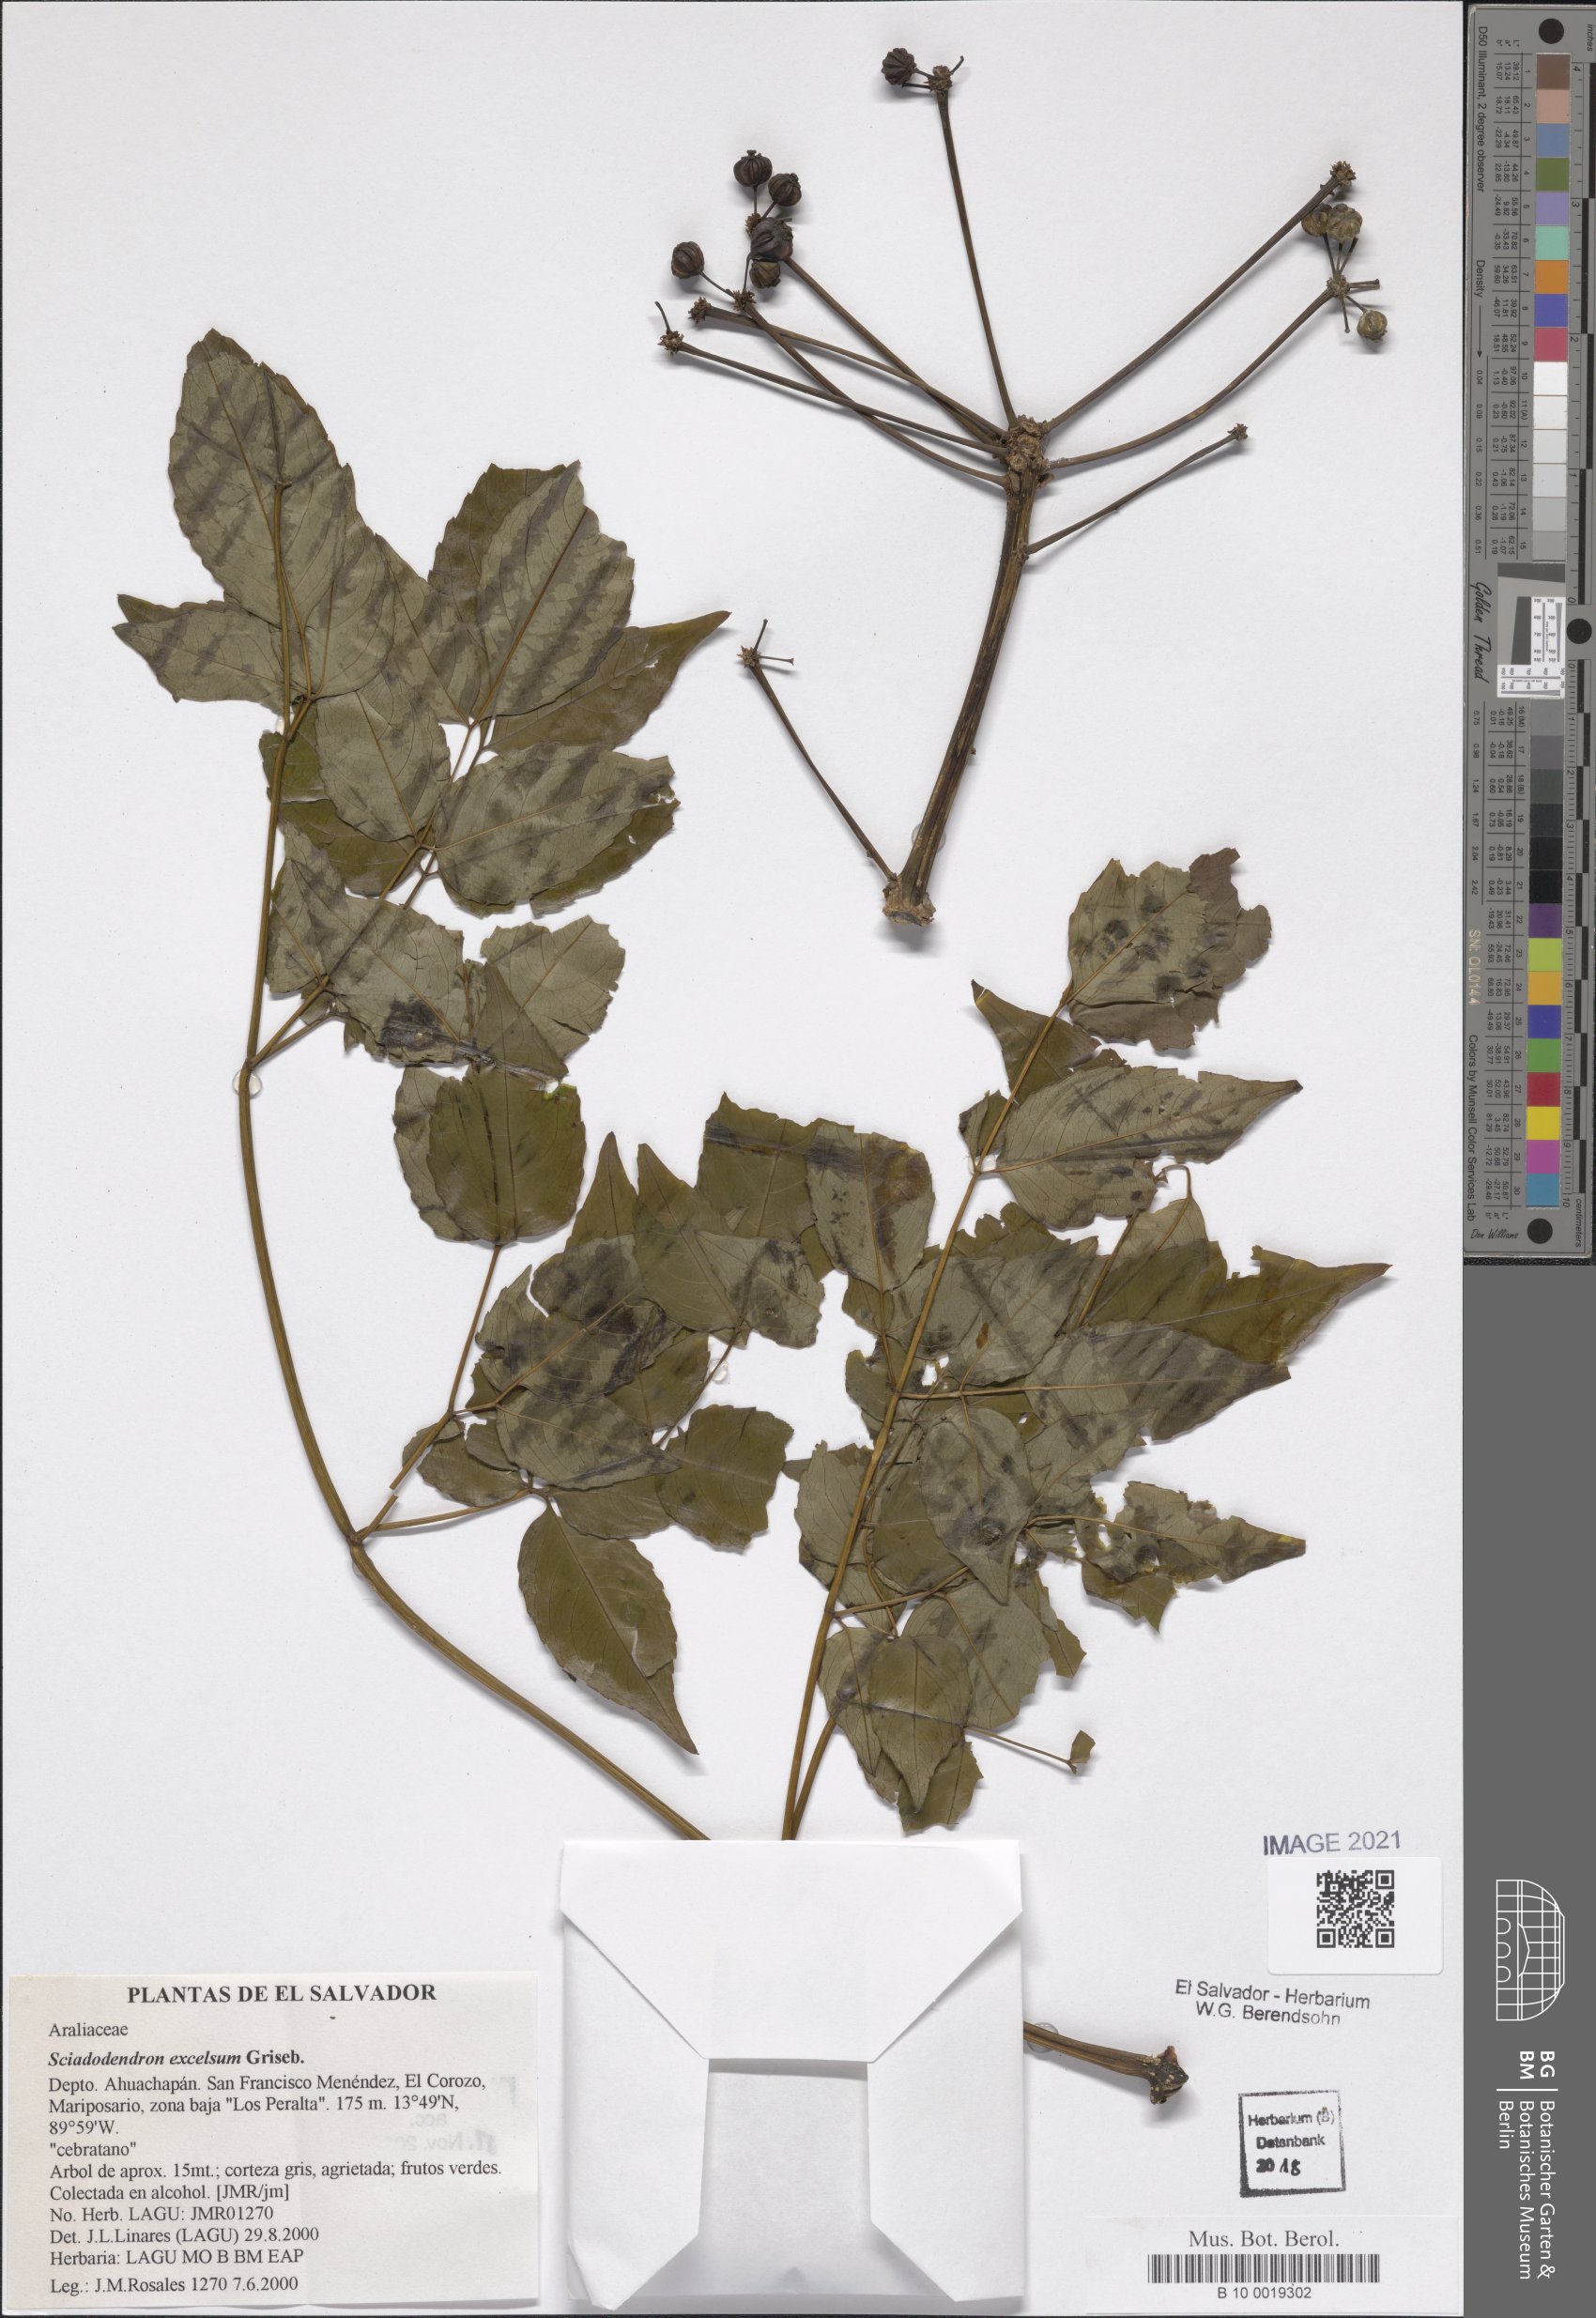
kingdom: Plantae
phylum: Tracheophyta
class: Magnoliopsida
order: Apiales
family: Araliaceae
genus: Aralia
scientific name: Aralia excelsa
